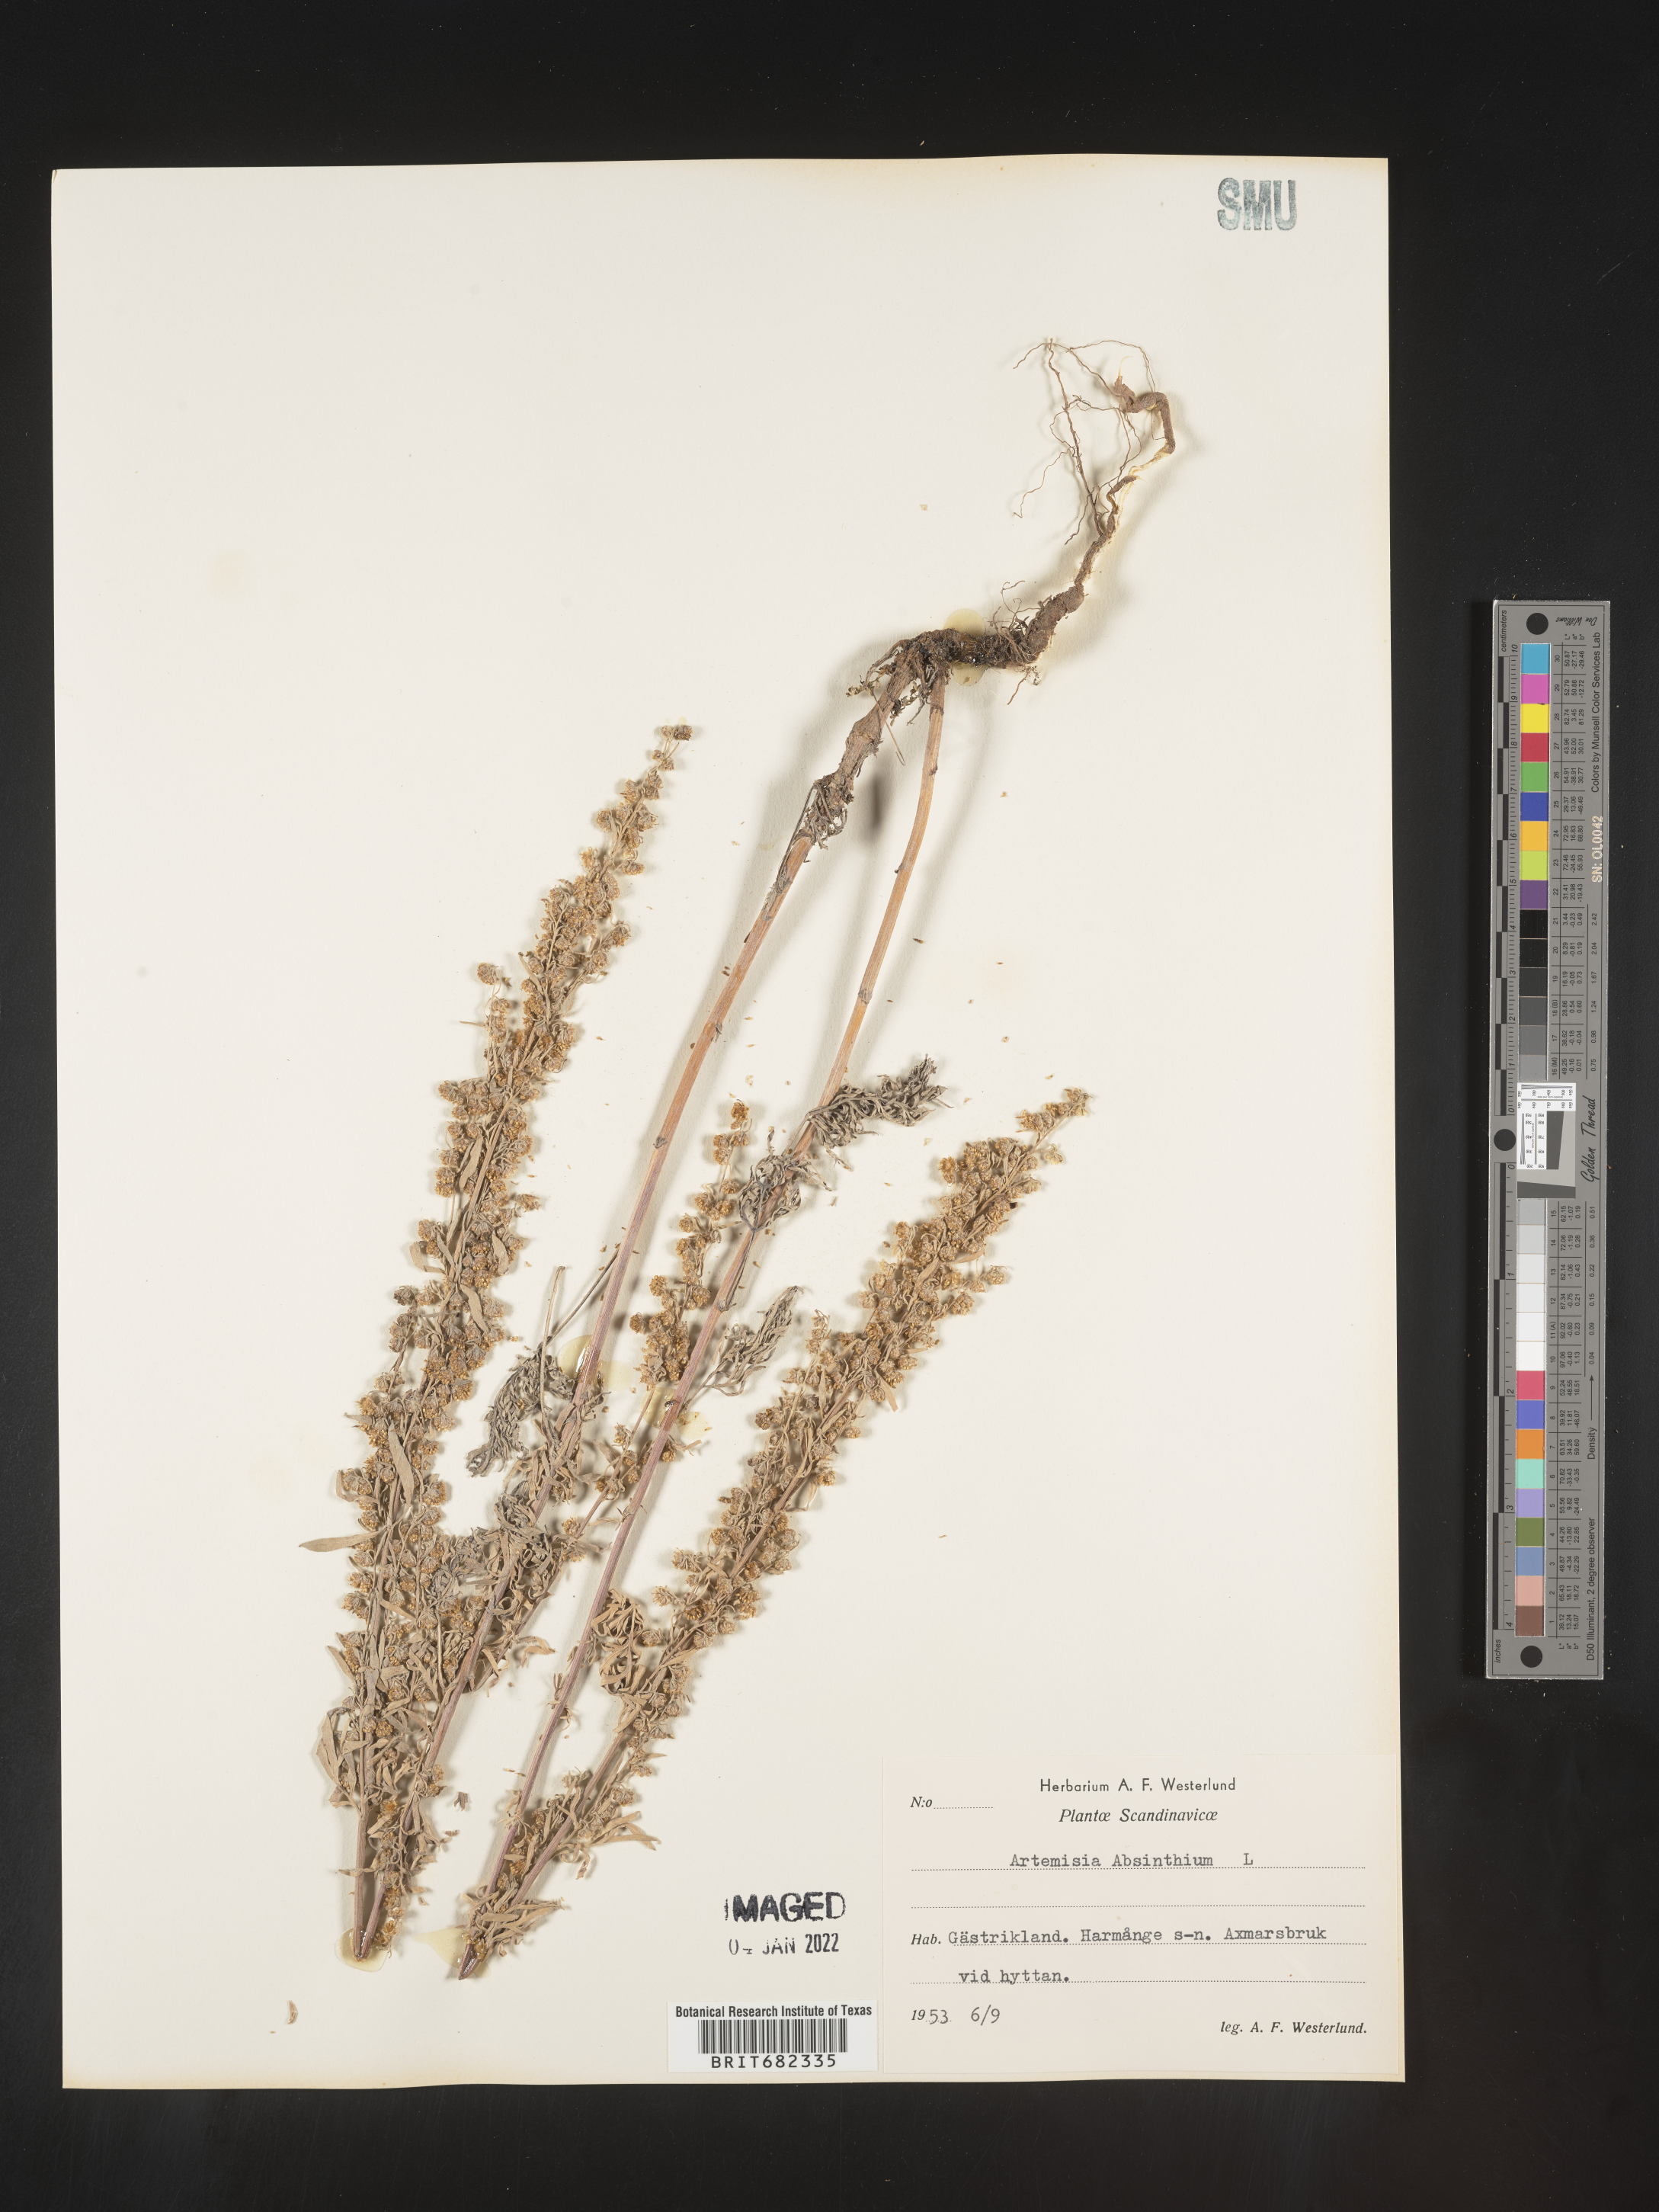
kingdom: Plantae
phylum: Tracheophyta
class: Magnoliopsida
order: Asterales
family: Asteraceae
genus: Artemisia
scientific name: Artemisia
